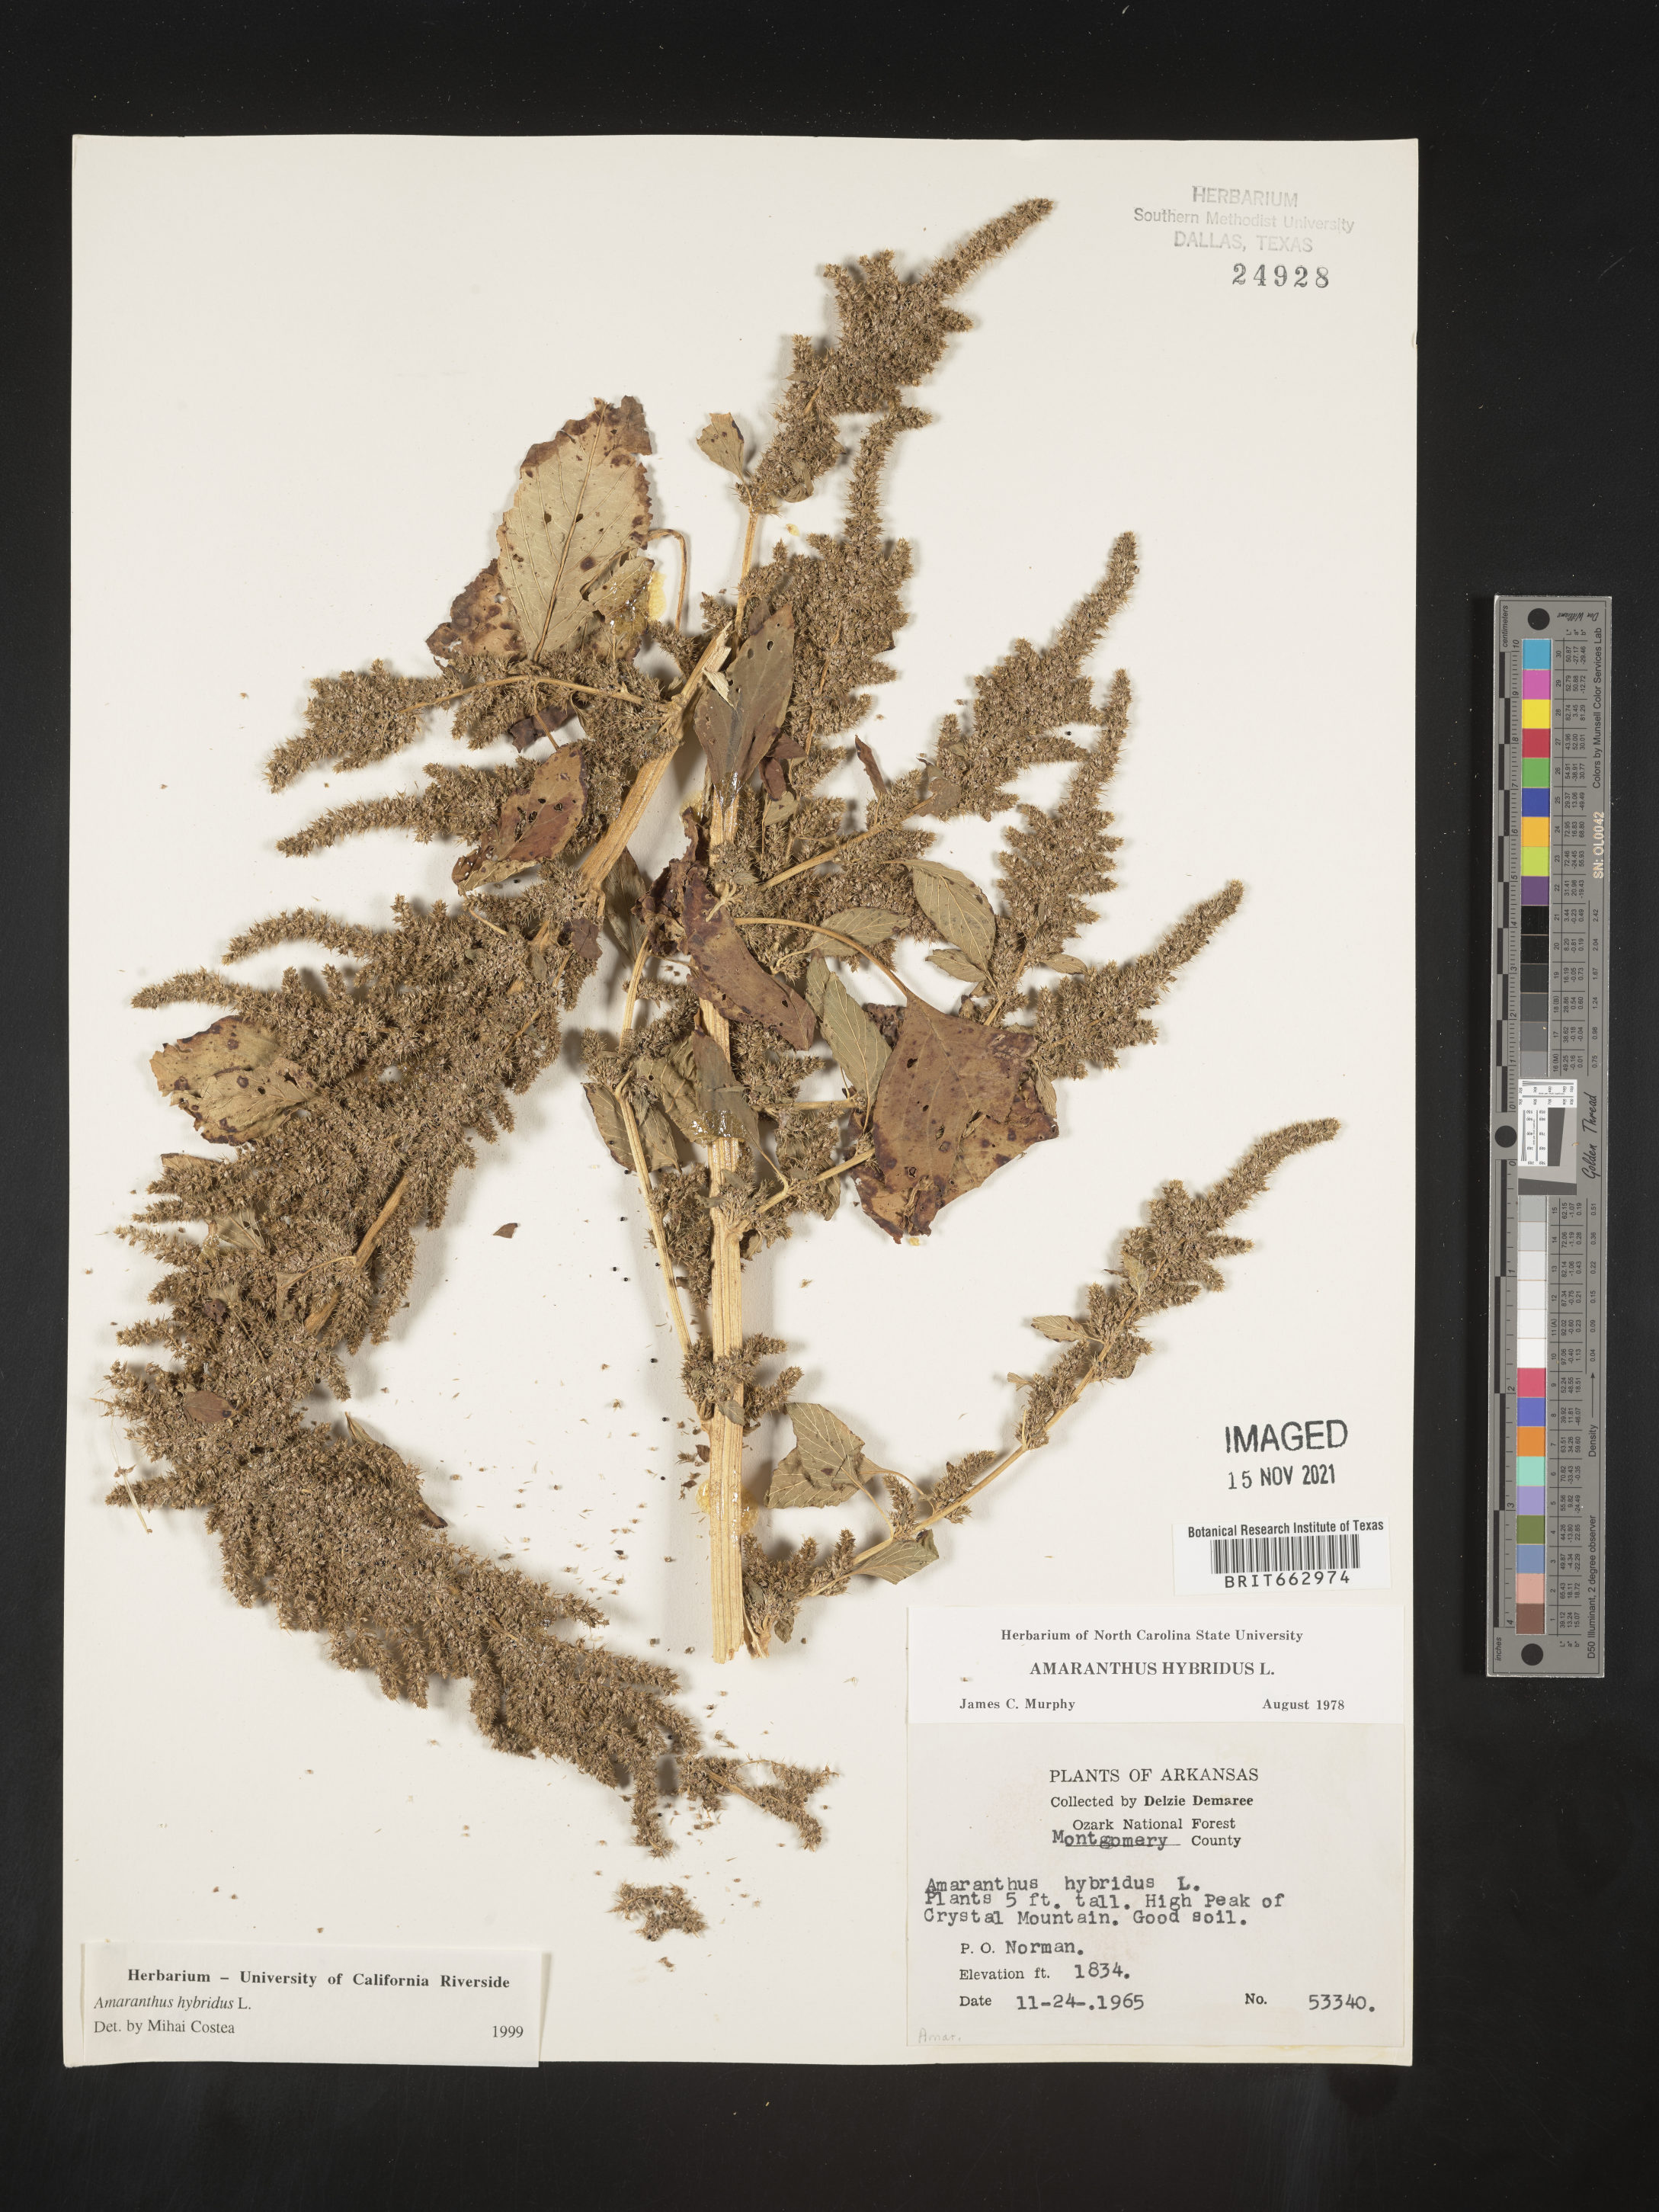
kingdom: Plantae
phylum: Tracheophyta
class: Magnoliopsida
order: Caryophyllales
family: Amaranthaceae
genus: Amaranthus
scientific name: Amaranthus hybridus
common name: Green amaranth
